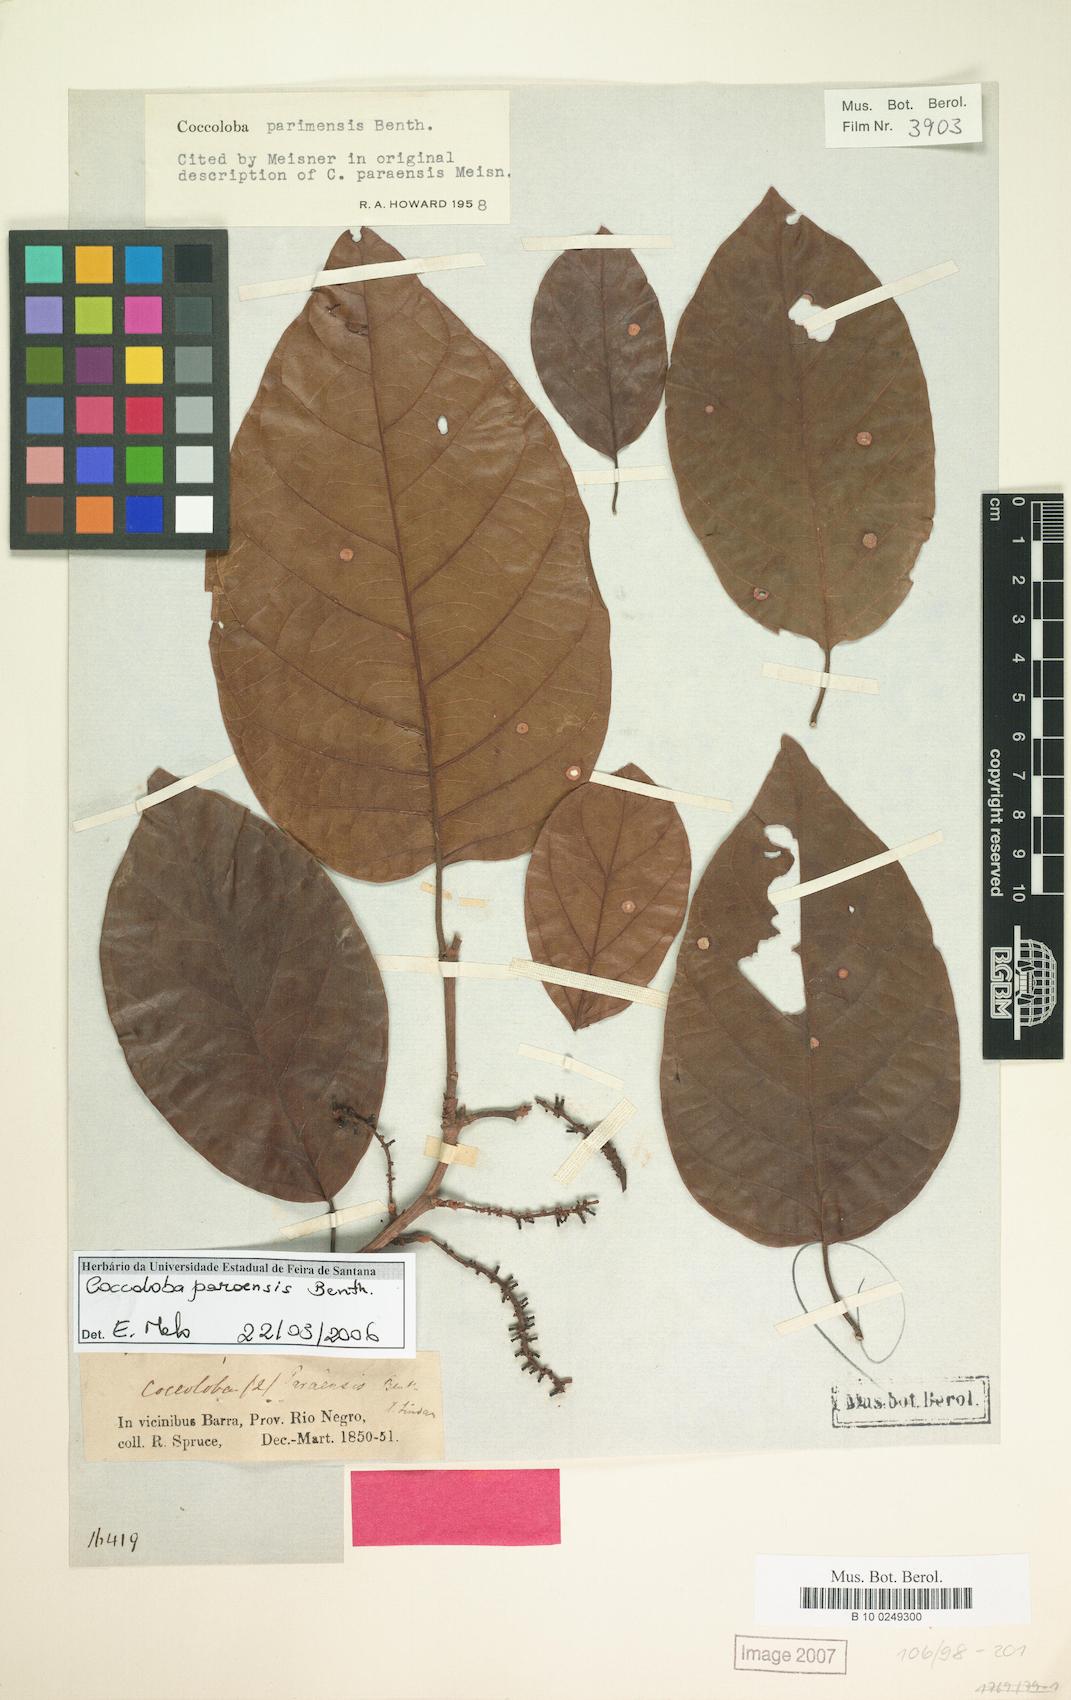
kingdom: Plantae
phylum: Tracheophyta
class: Magnoliopsida
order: Caryophyllales
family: Polygonaceae
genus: Coccoloba
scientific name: Coccoloba parimensis
